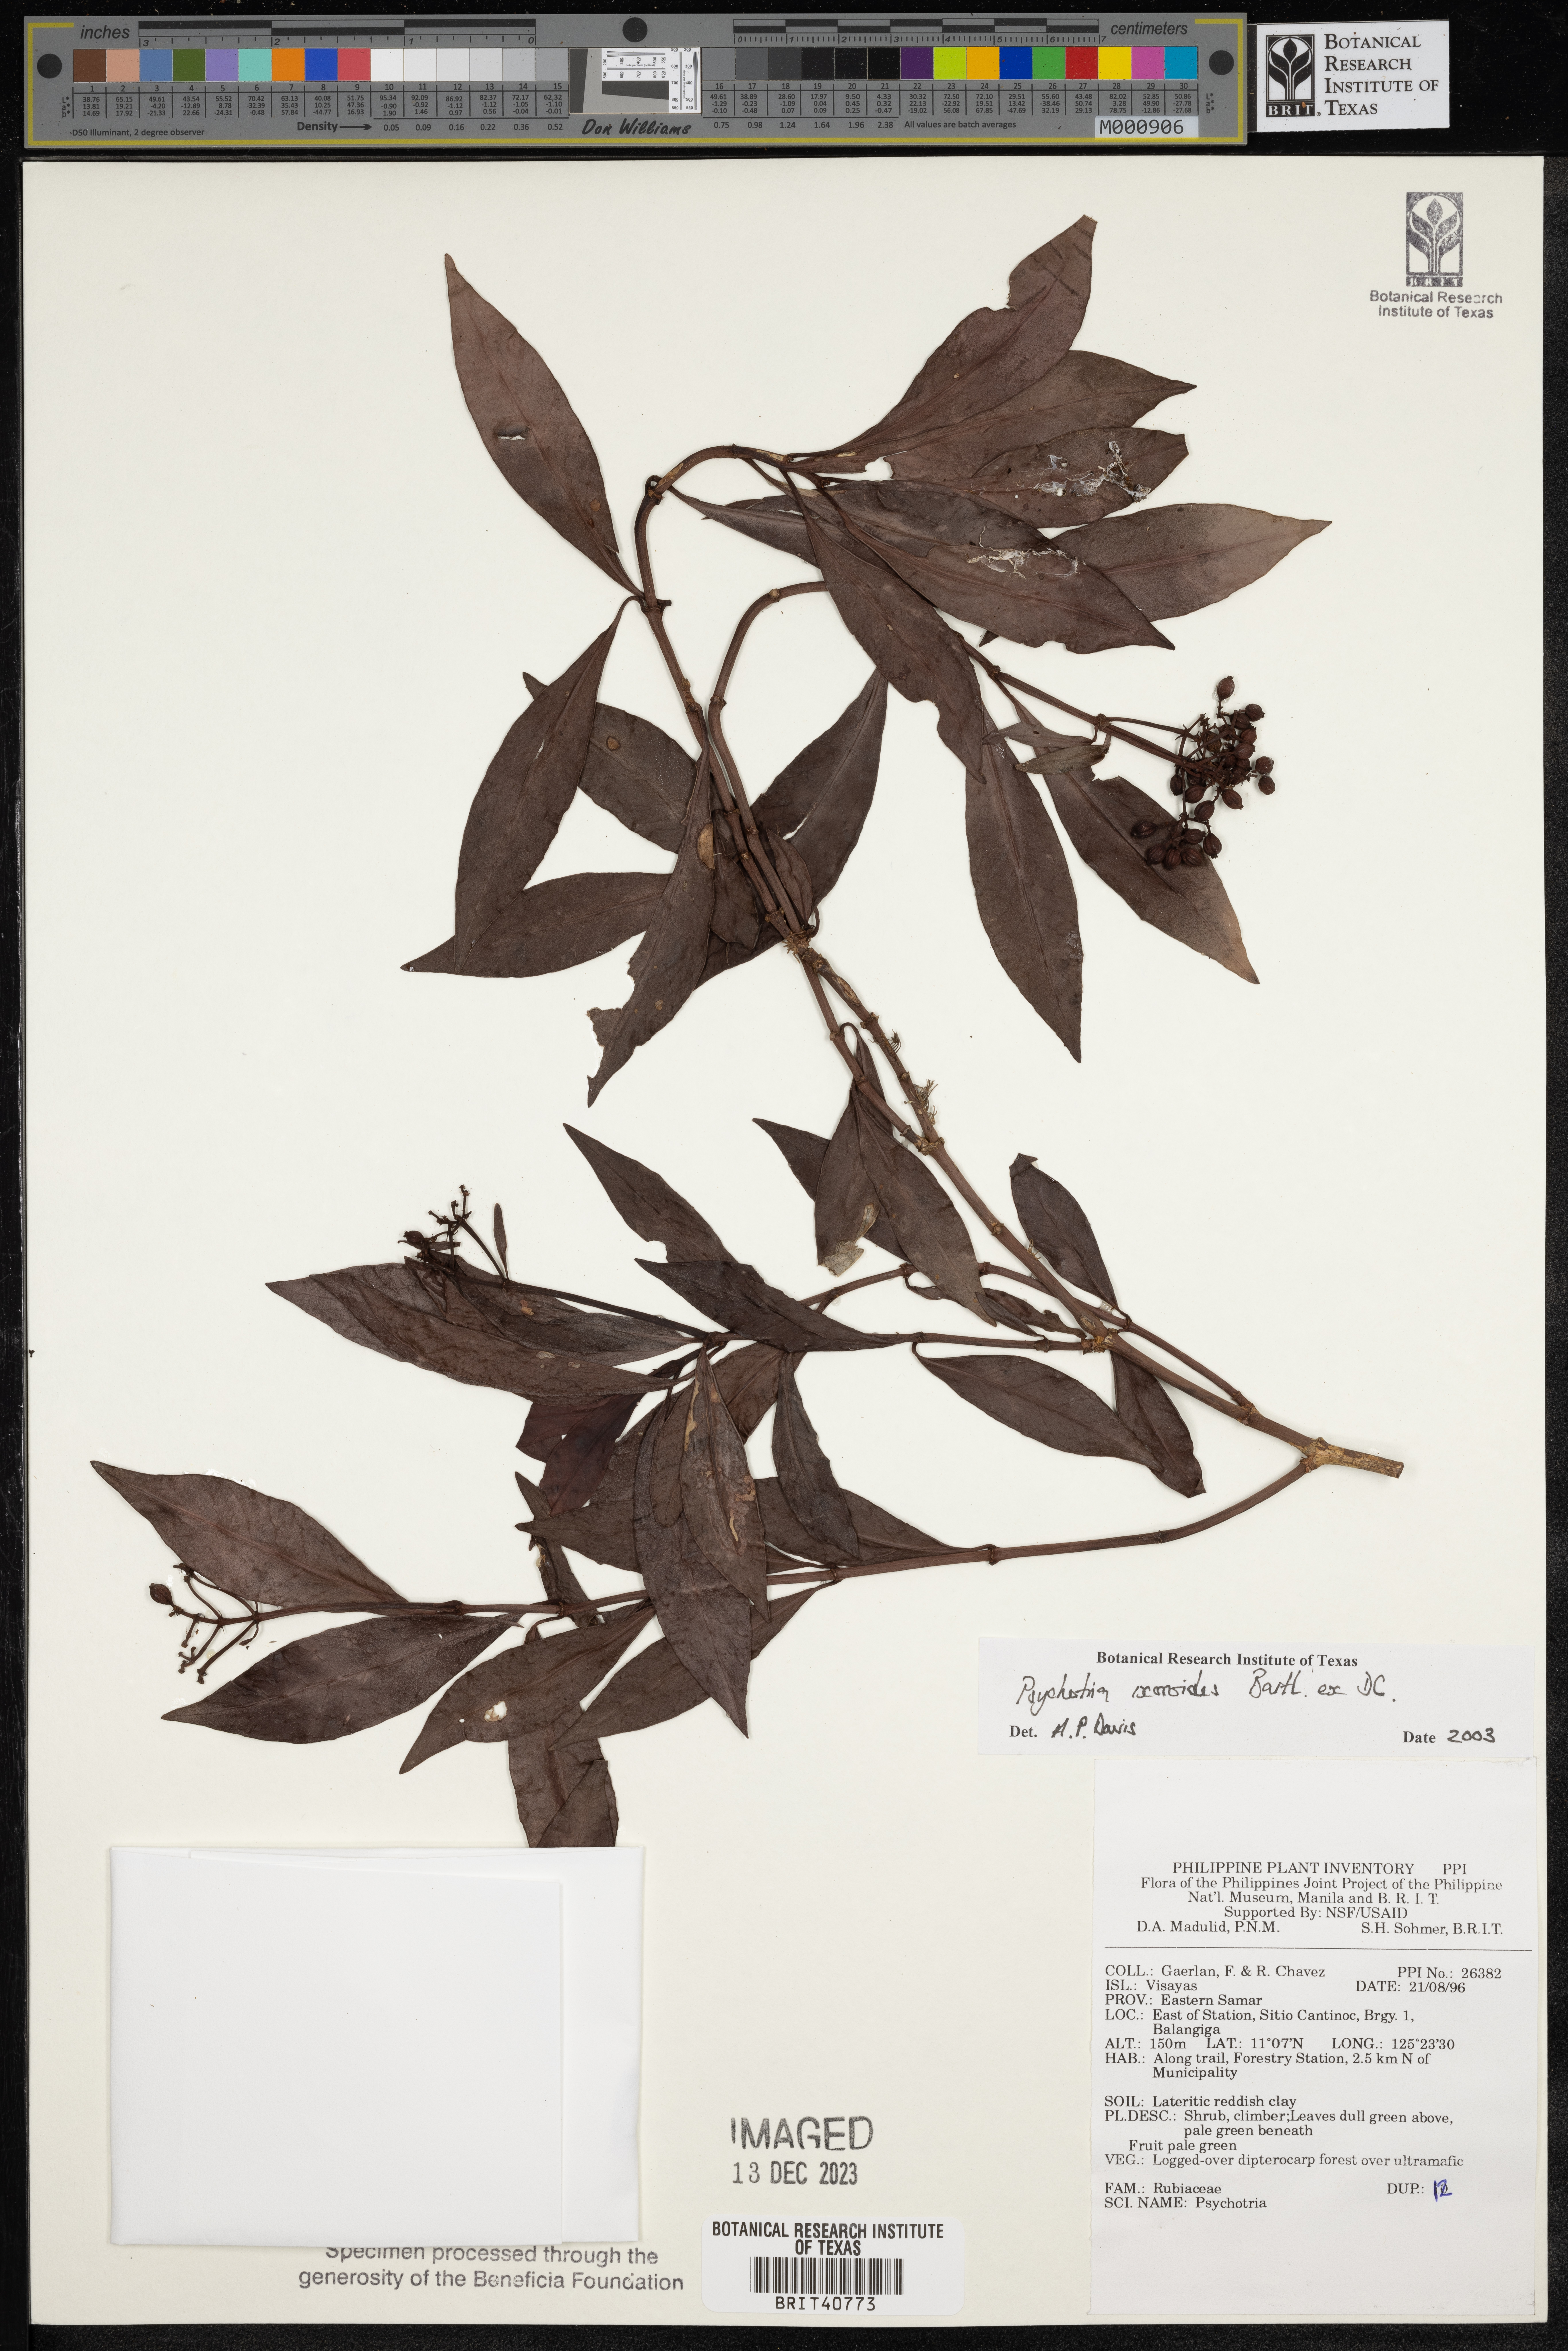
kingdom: Plantae
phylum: Tracheophyta
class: Magnoliopsida
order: Gentianales
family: Rubiaceae
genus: Psychotria
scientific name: Psychotria ixoroides
